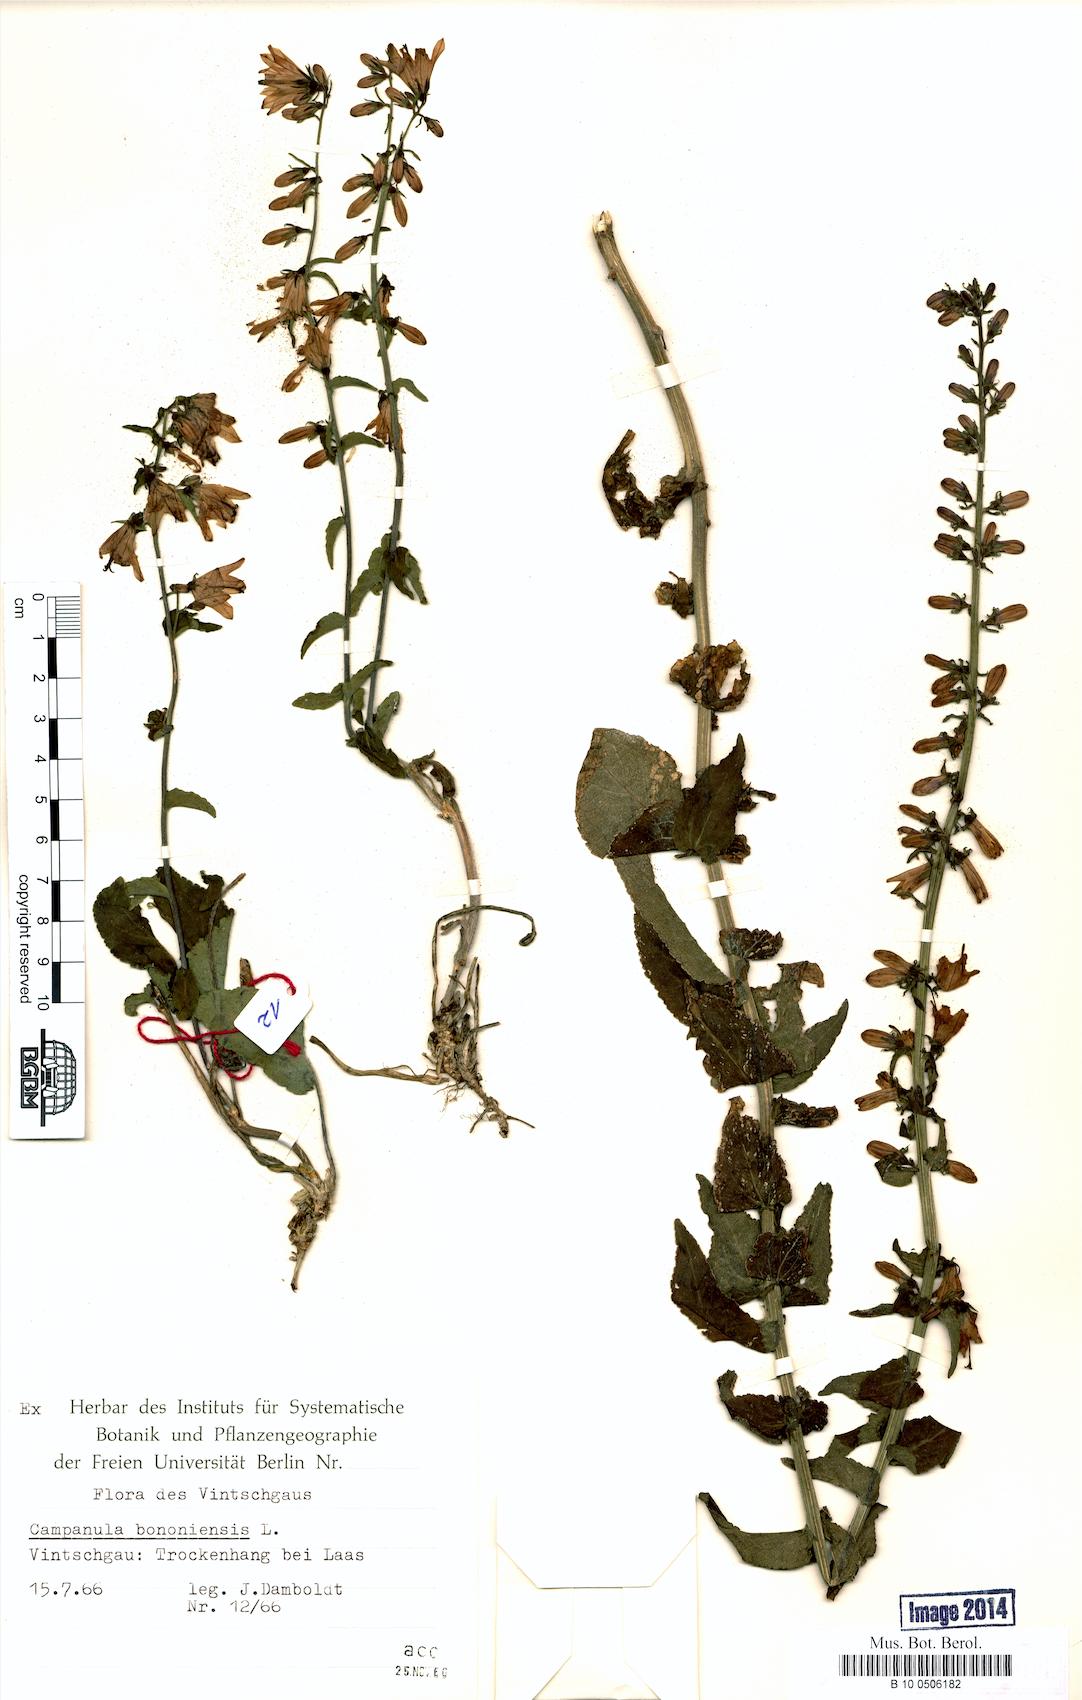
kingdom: Plantae
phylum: Tracheophyta
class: Magnoliopsida
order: Asterales
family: Campanulaceae
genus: Campanula
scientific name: Campanula bononiensis
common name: Pale bellflower
